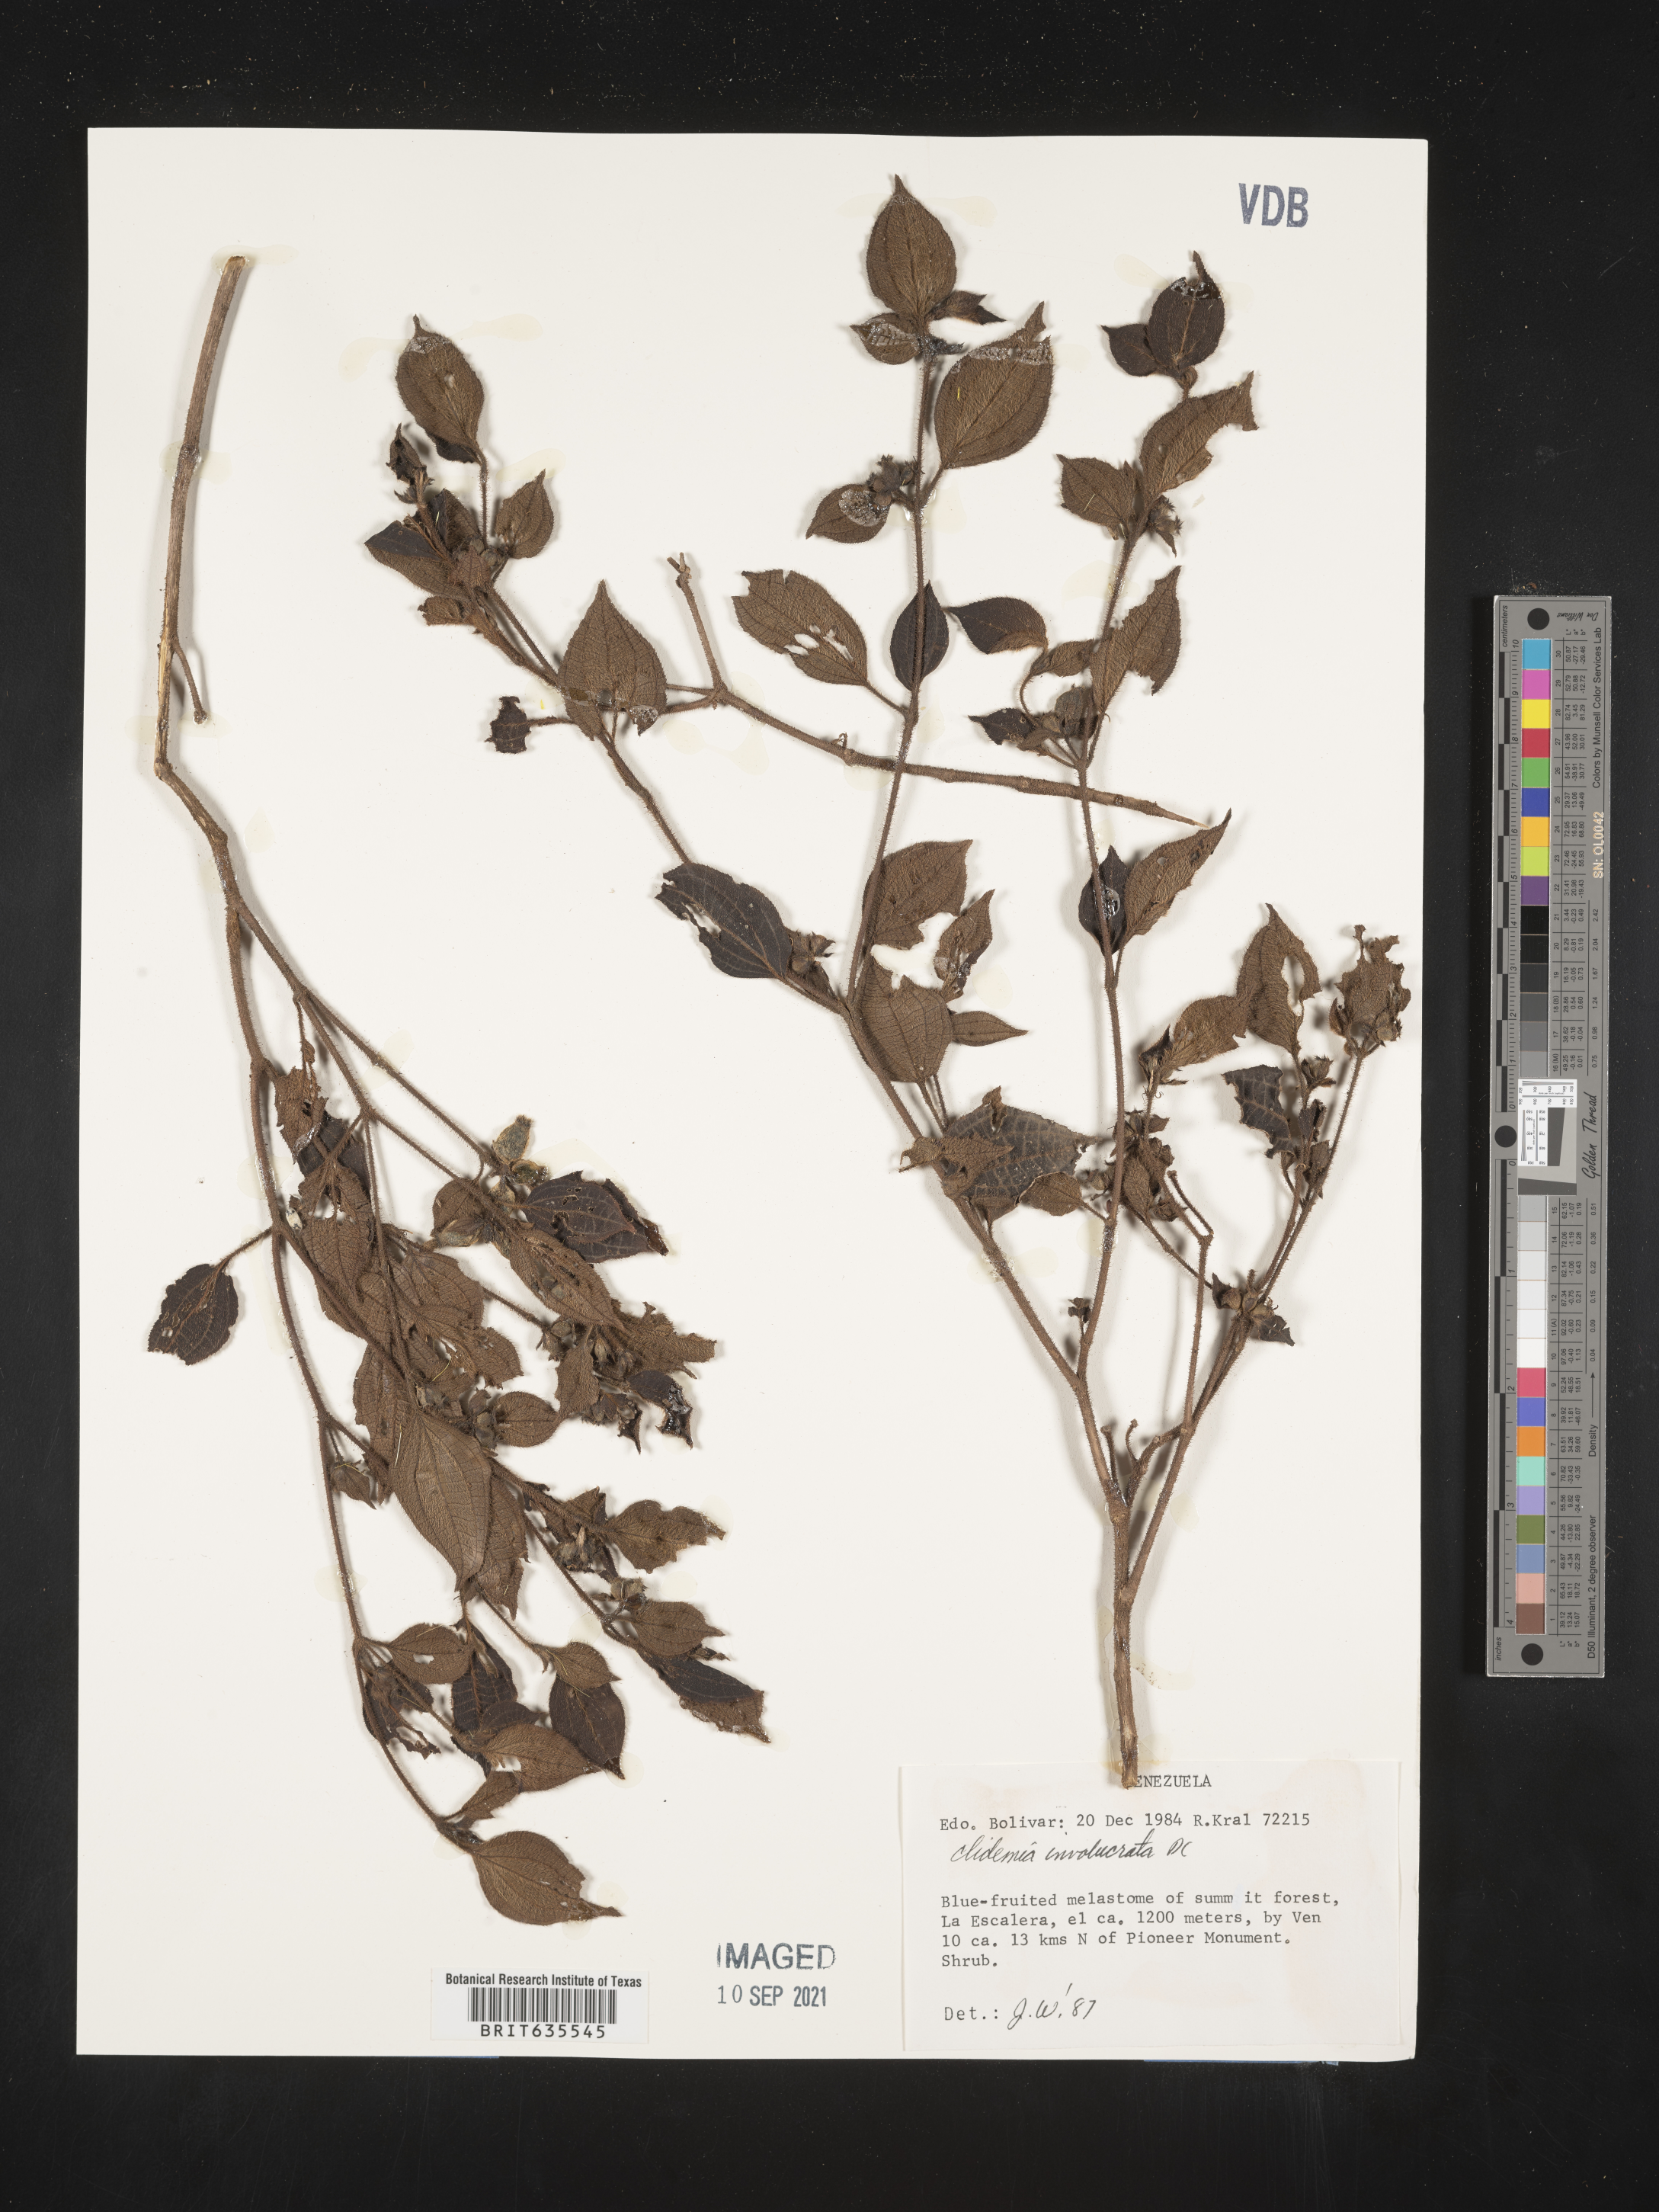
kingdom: Plantae
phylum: Tracheophyta
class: Magnoliopsida
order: Myrtales
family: Melastomataceae
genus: Miconia
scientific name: Miconia
